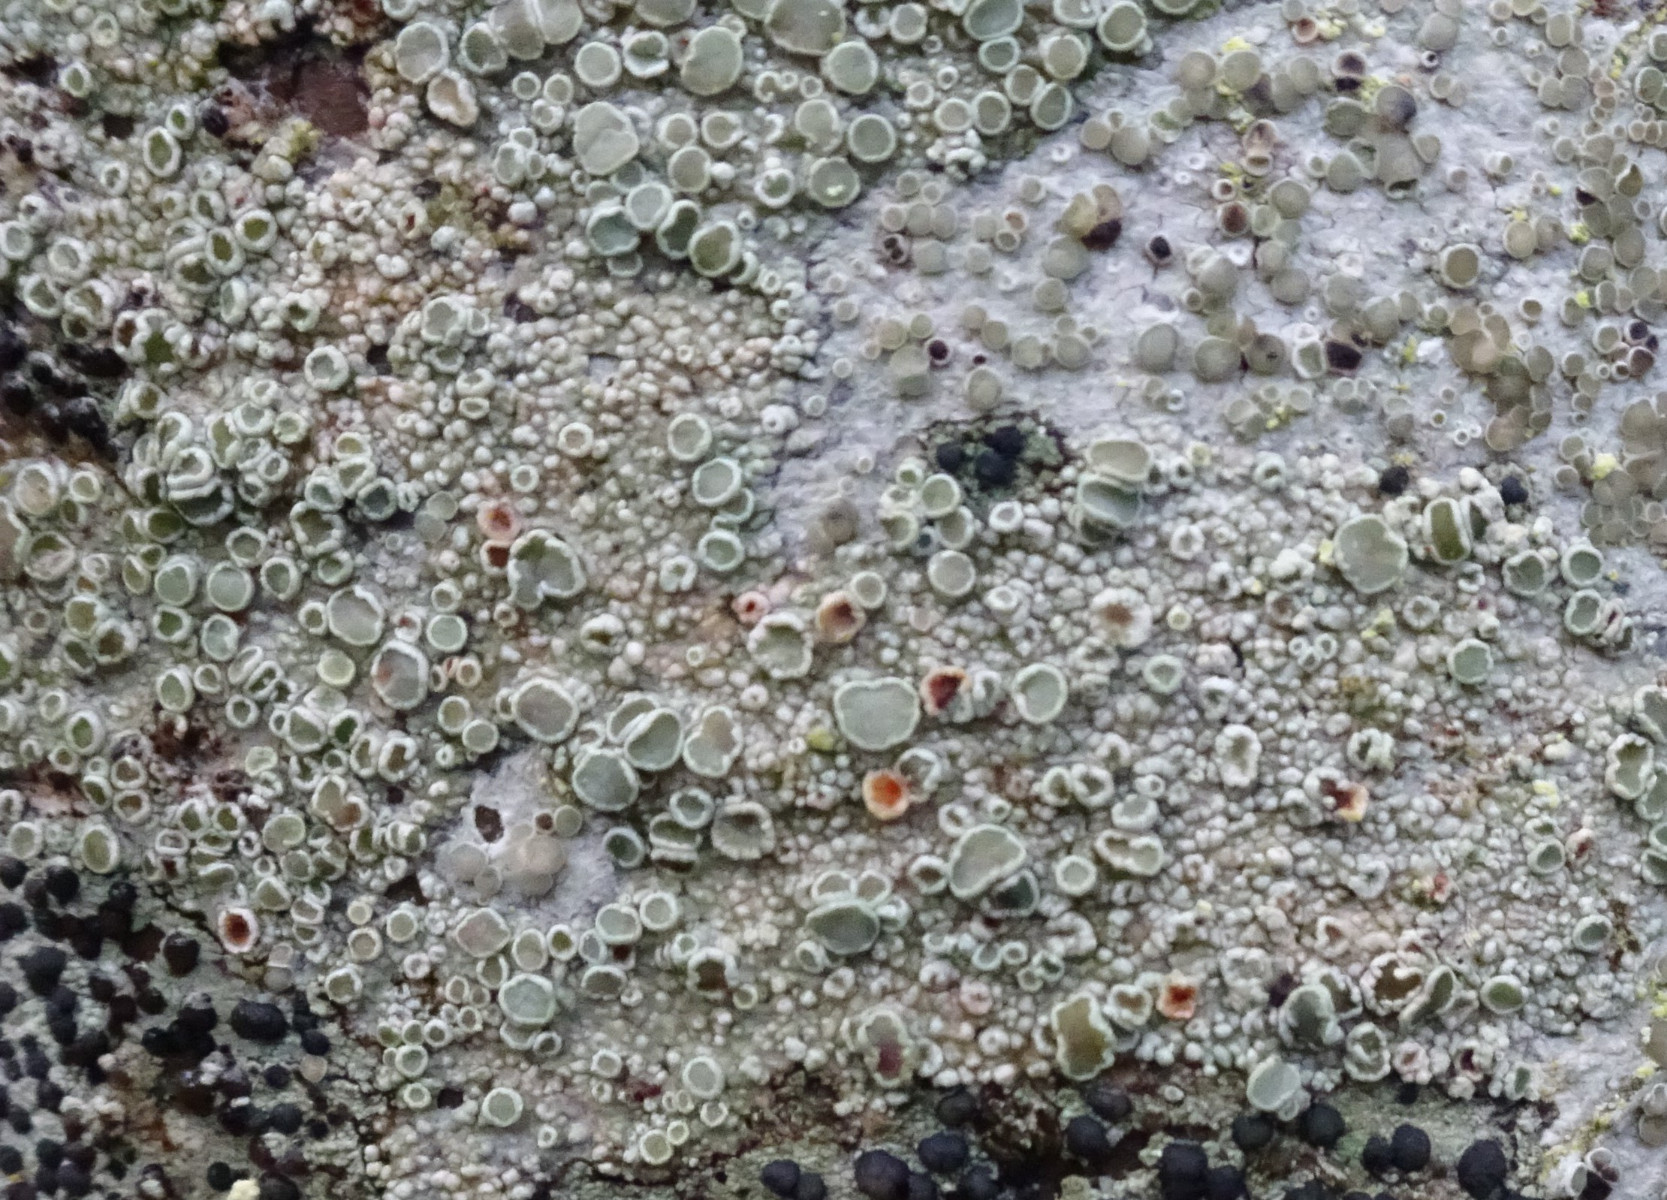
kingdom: Fungi
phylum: Ascomycota
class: Lecanoromycetes
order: Lecanorales
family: Lecanoraceae
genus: Lecanora
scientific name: Lecanora chlarotera
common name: brun kantskivelav
